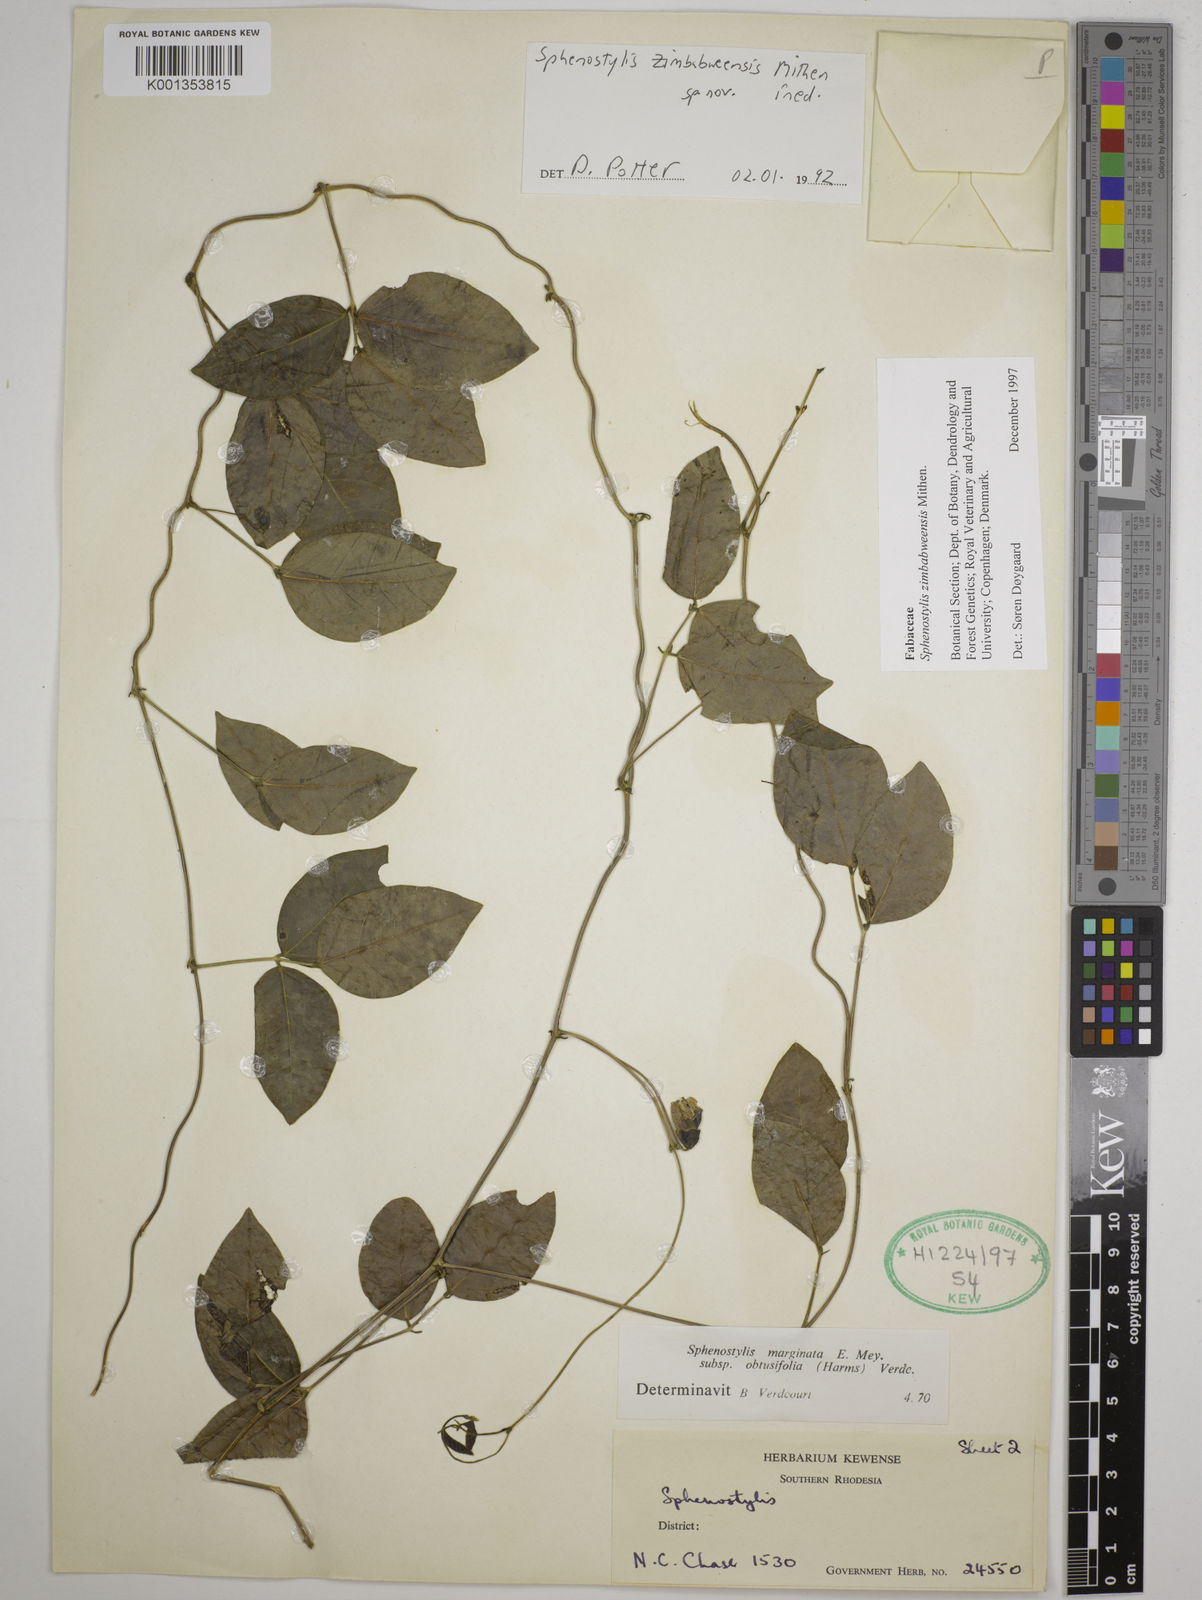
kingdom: Plantae
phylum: Tracheophyta
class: Magnoliopsida
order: Fabales
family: Fabaceae
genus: Sphenostylis
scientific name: Sphenostylis zimbabweensis
